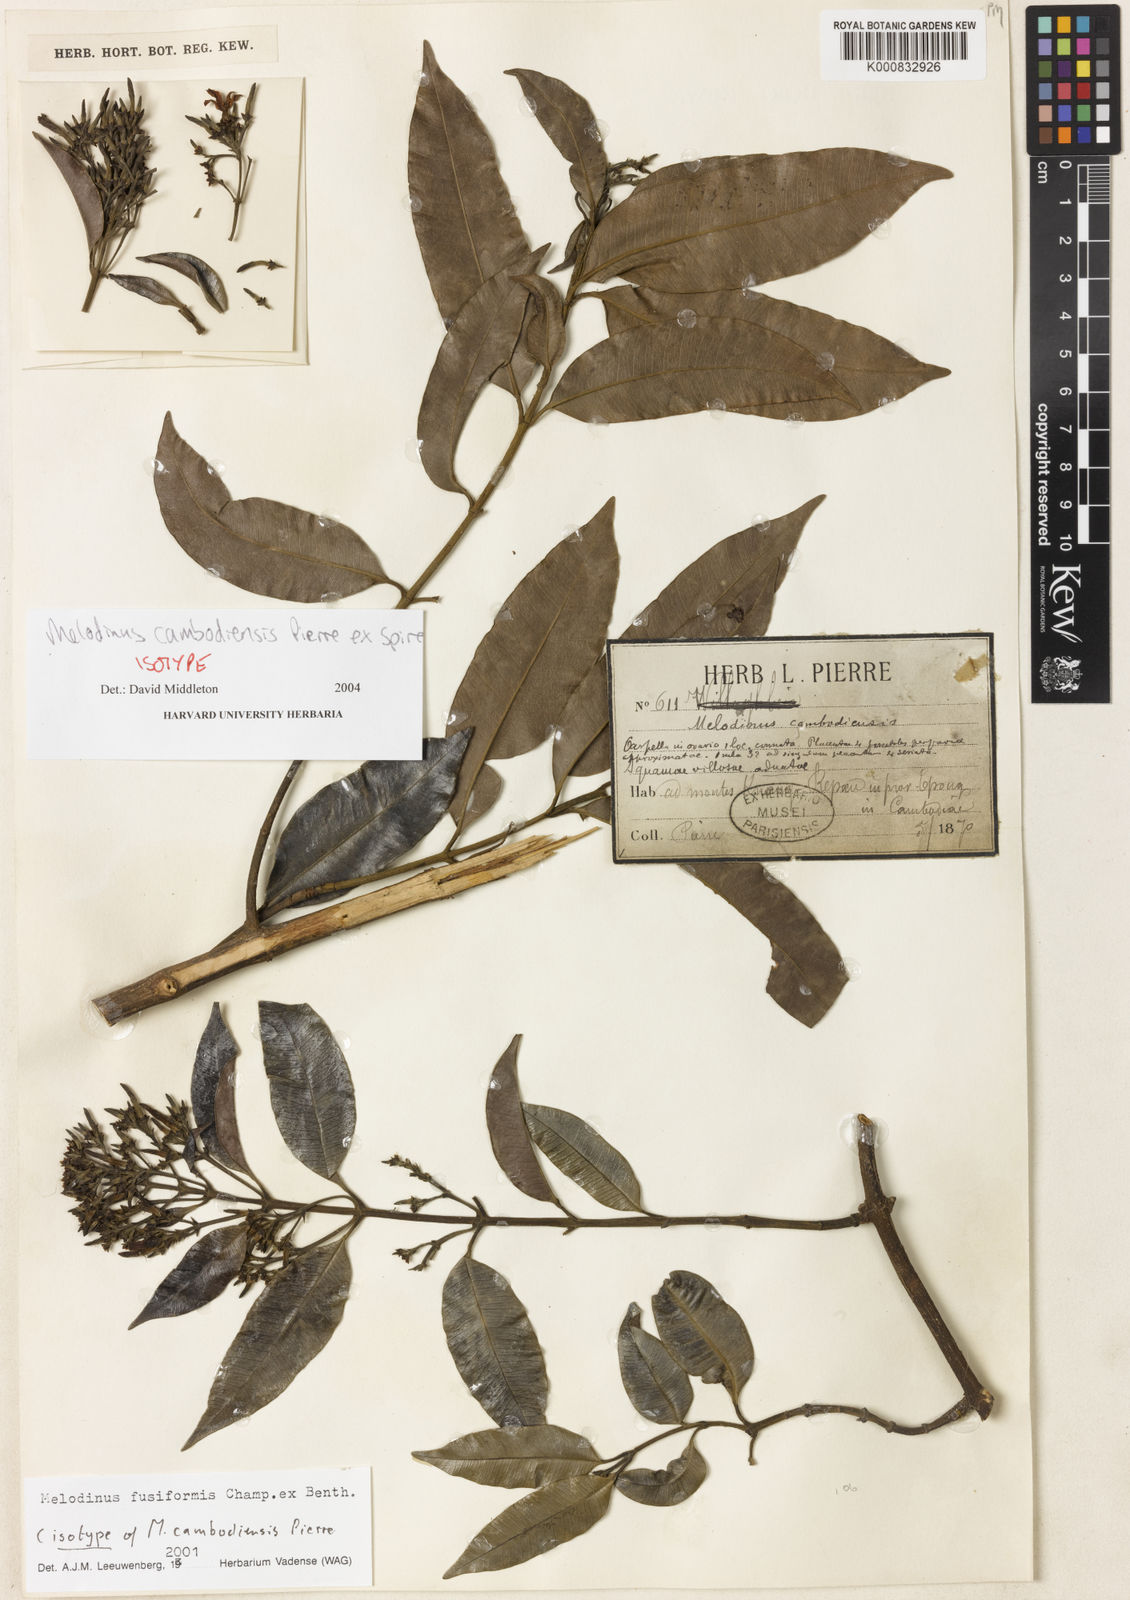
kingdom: Plantae
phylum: Tracheophyta
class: Magnoliopsida
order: Gentianales
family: Apocynaceae
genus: Melodinus
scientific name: Melodinus cambodiensis
